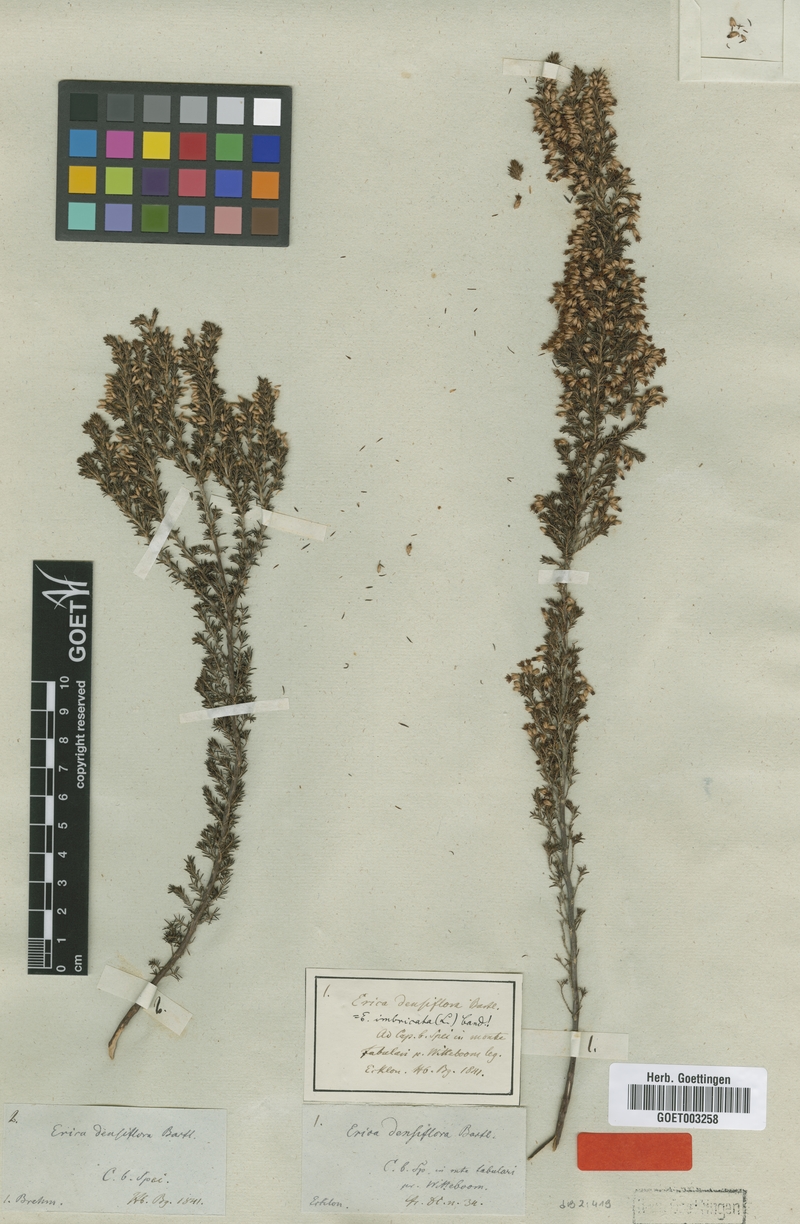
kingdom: Plantae
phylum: Tracheophyta
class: Magnoliopsida
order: Ericales
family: Ericaceae
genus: Erica
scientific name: Erica imbricata
